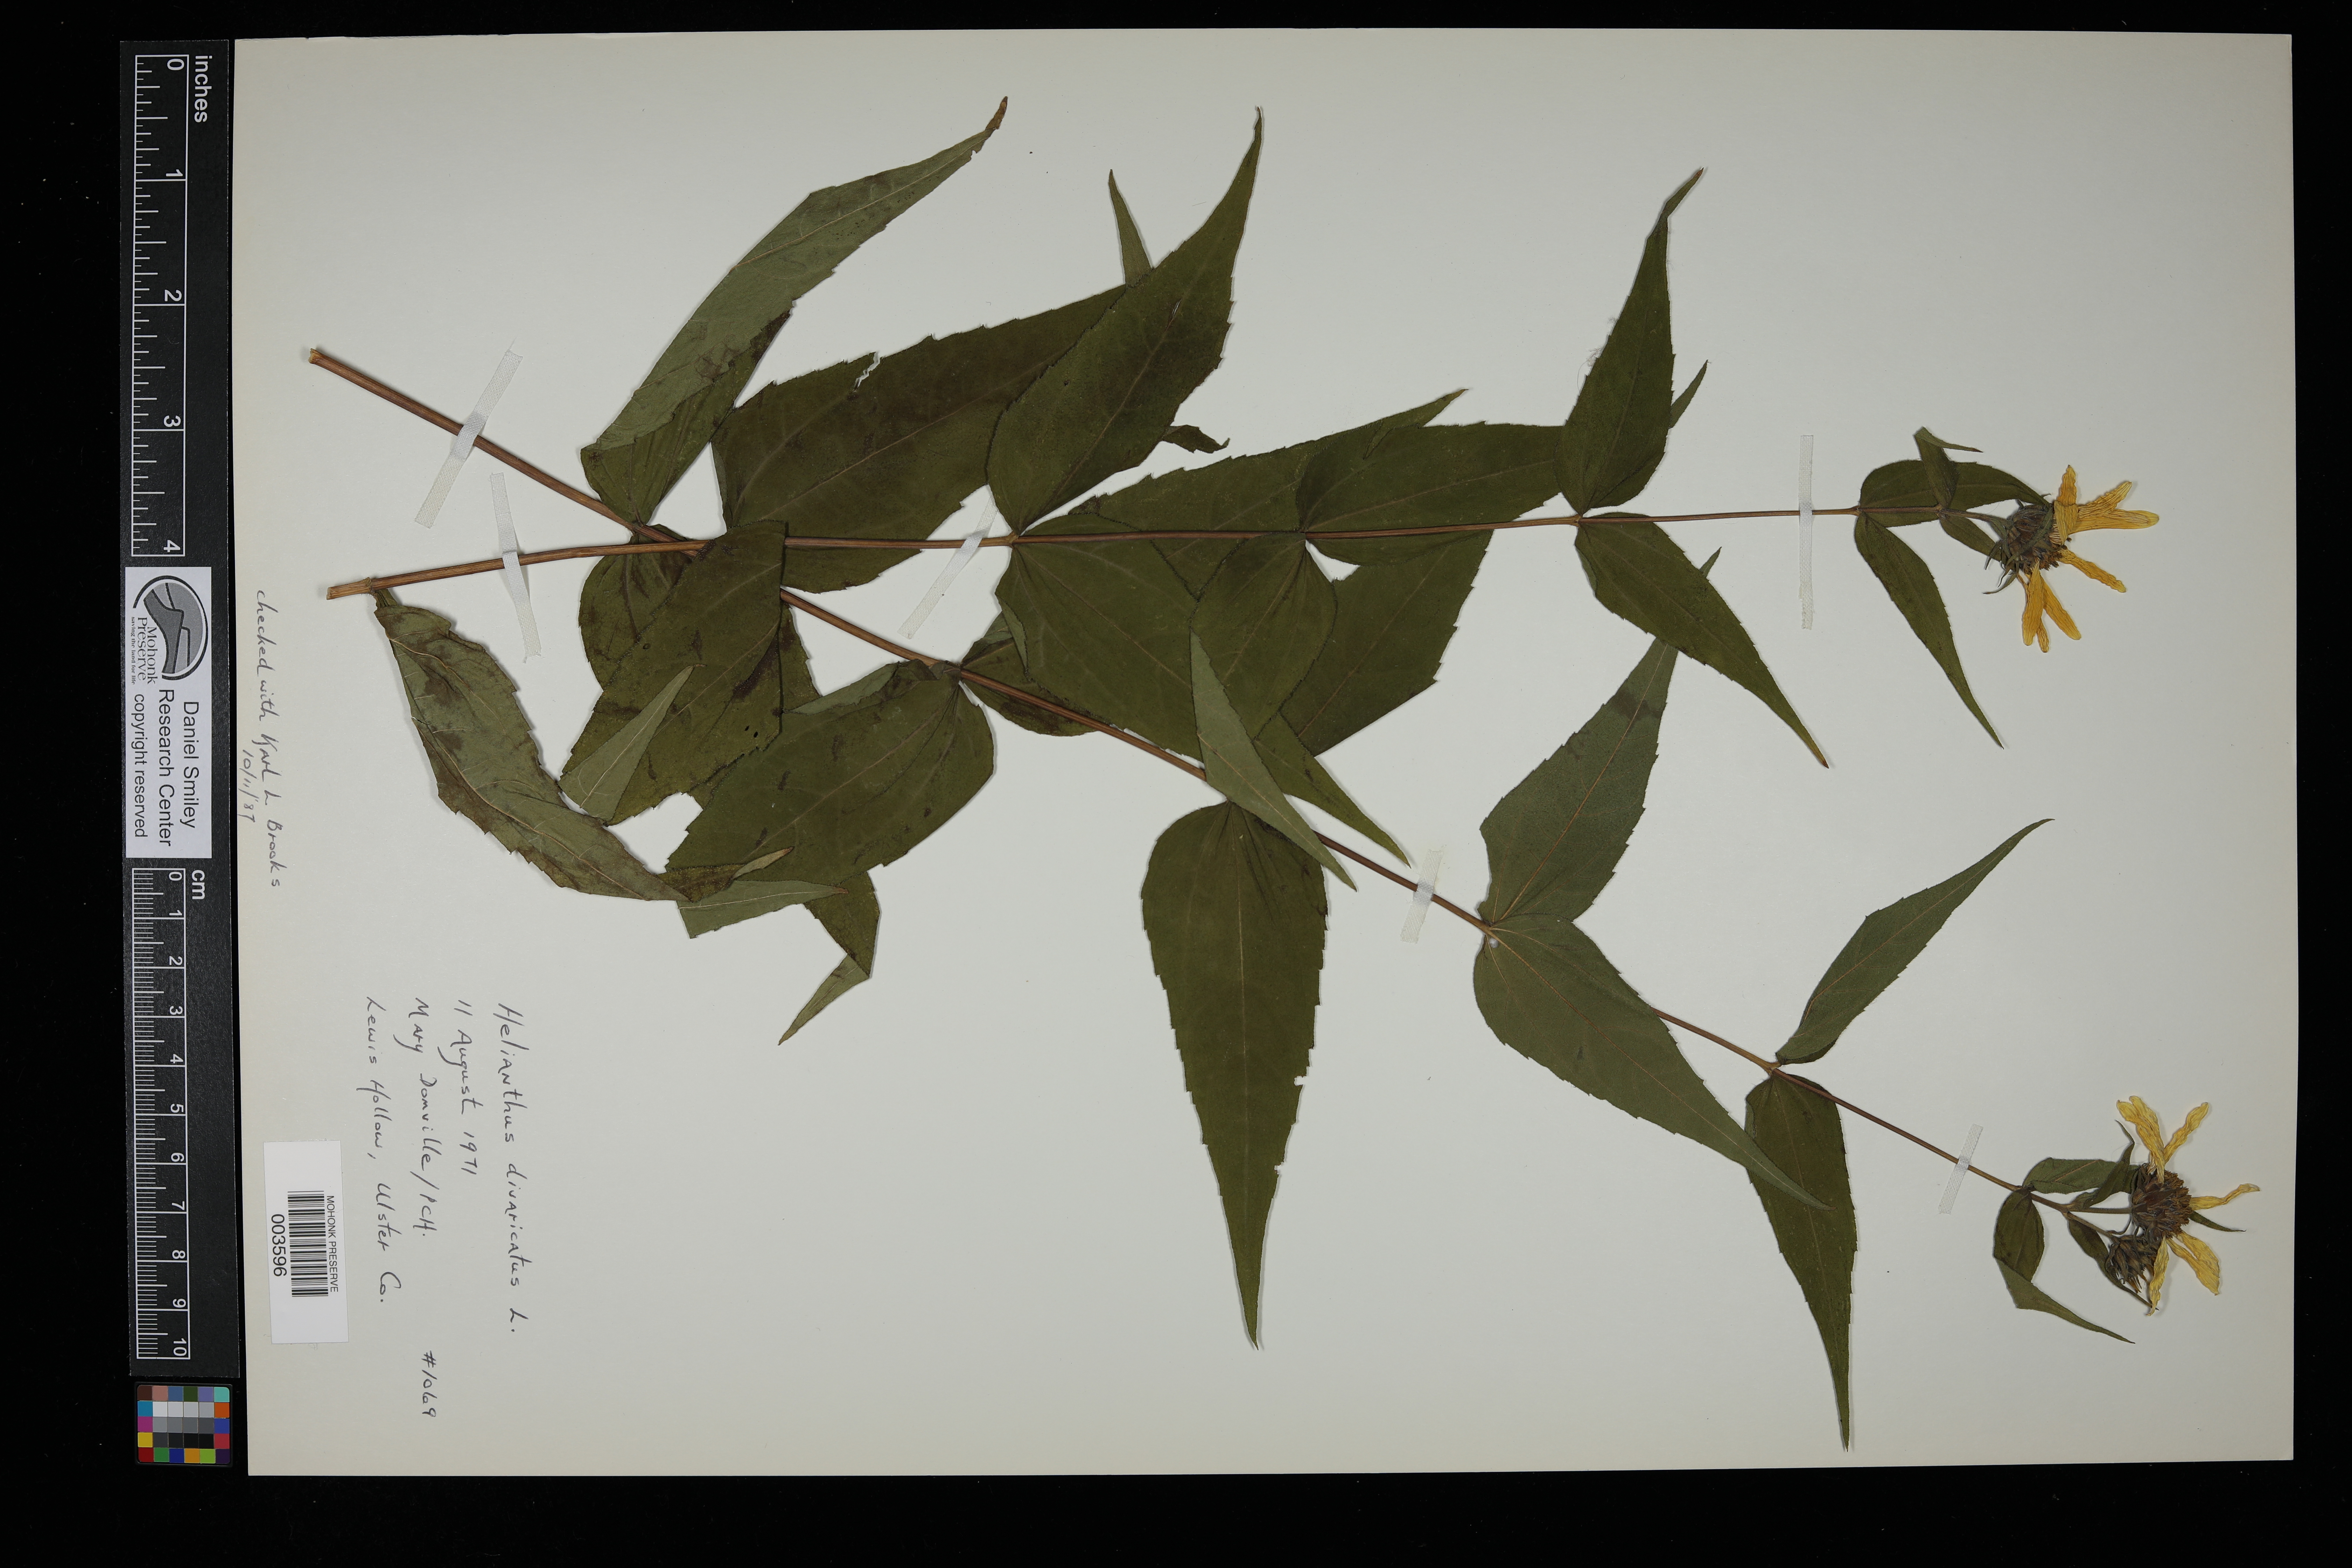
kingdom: Plantae
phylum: Tracheophyta
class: Magnoliopsida
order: Asterales
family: Asteraceae
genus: Helianthus
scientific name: Helianthus divaricatus
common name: Divergent sunflower
